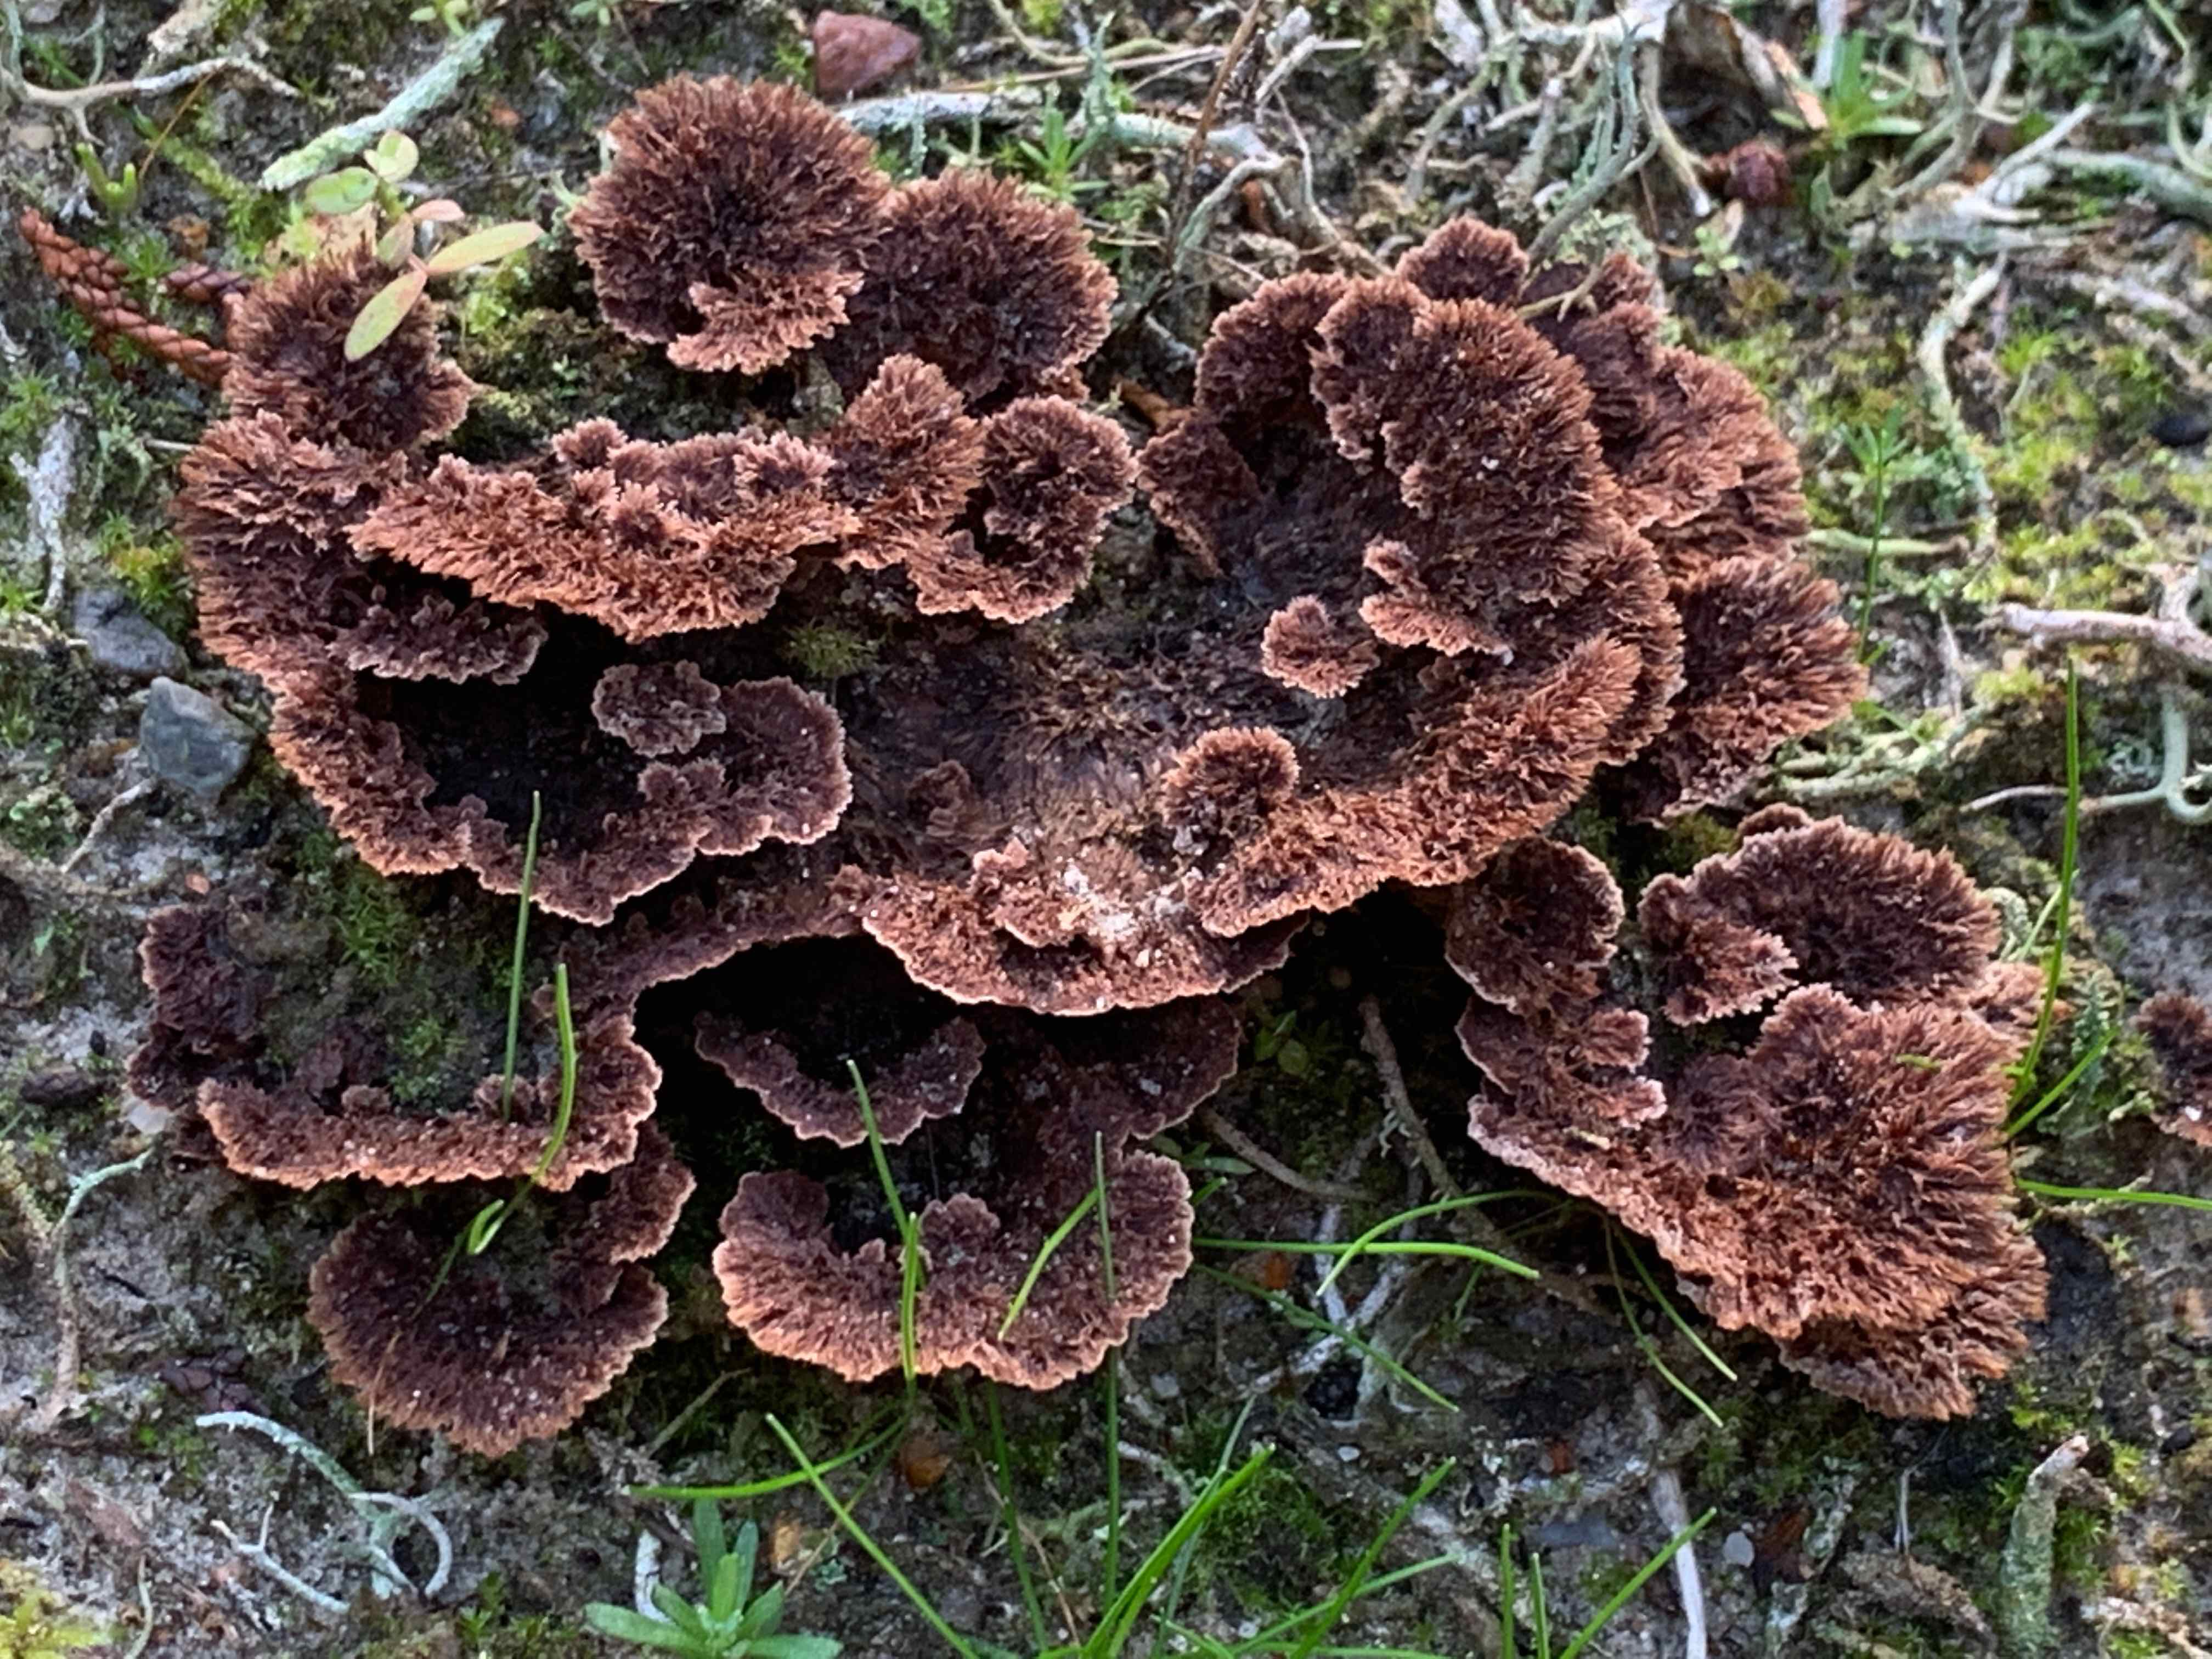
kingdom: Fungi
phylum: Basidiomycota
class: Agaricomycetes
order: Thelephorales
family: Thelephoraceae
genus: Thelephora
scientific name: Thelephora terrestris
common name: fliget frynsesvamp
